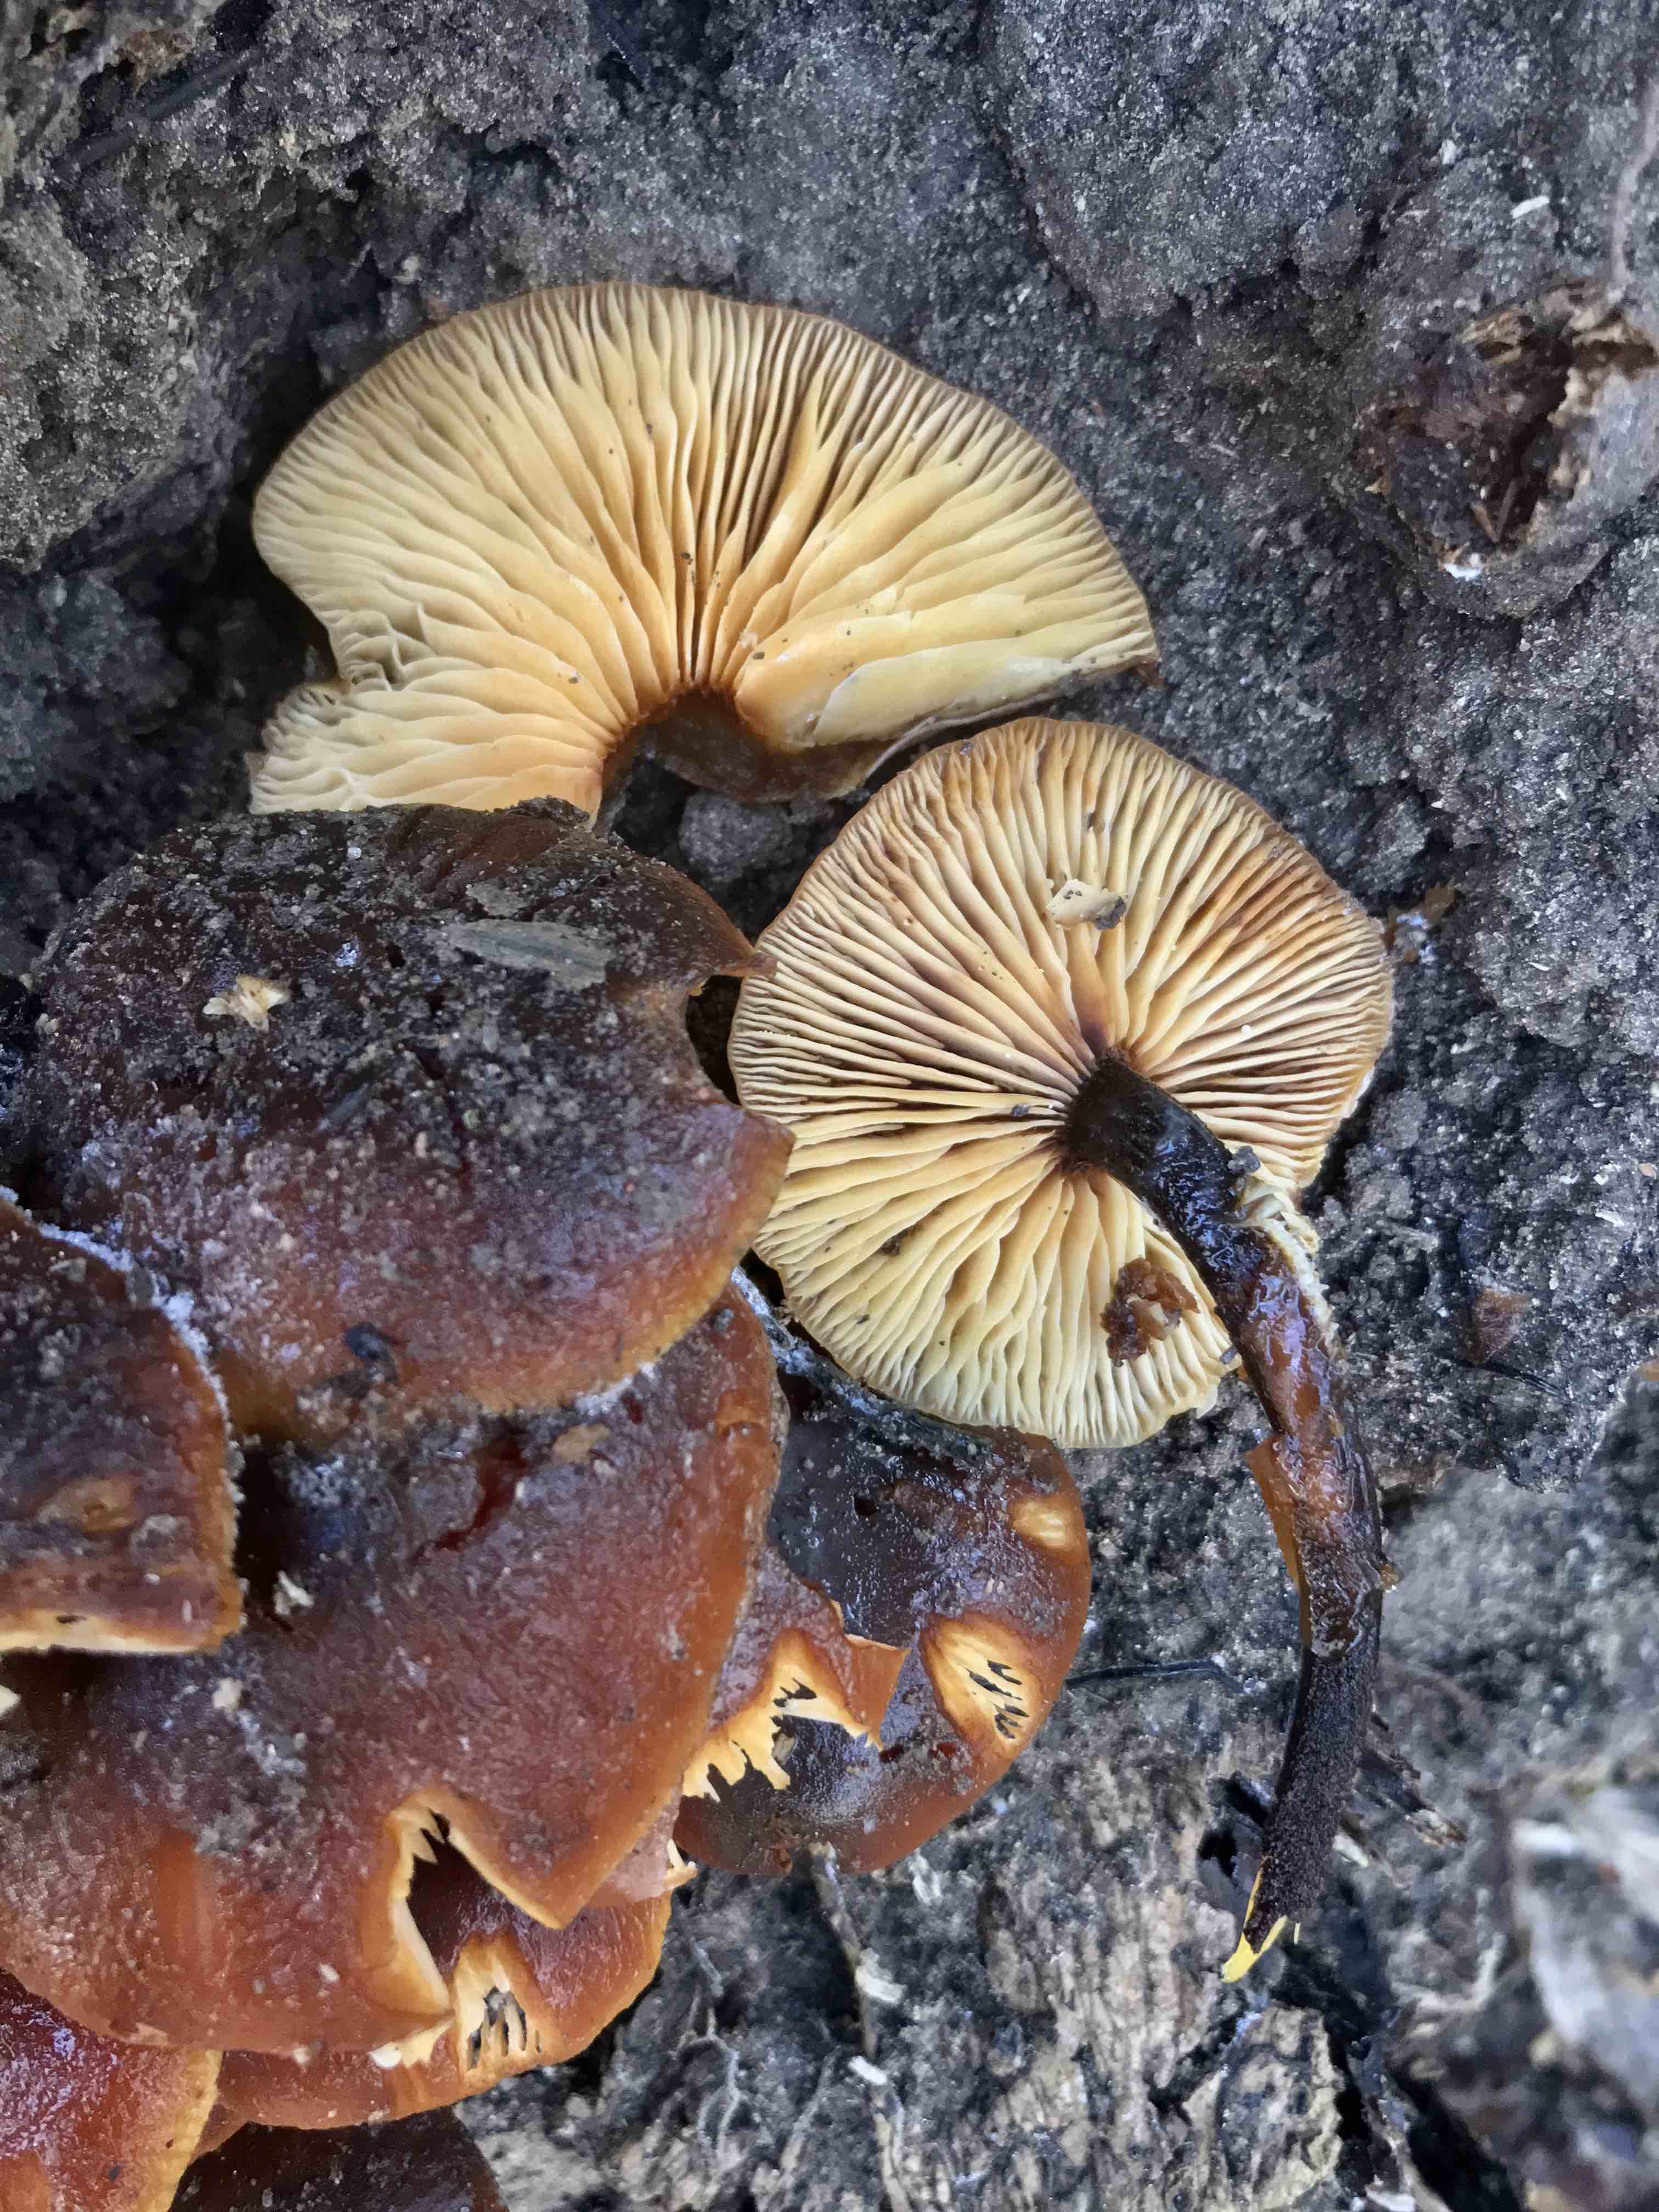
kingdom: Fungi
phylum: Basidiomycota
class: Agaricomycetes
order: Agaricales
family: Physalacriaceae
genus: Flammulina
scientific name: Flammulina velutipes
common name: gul fløjlsfod
